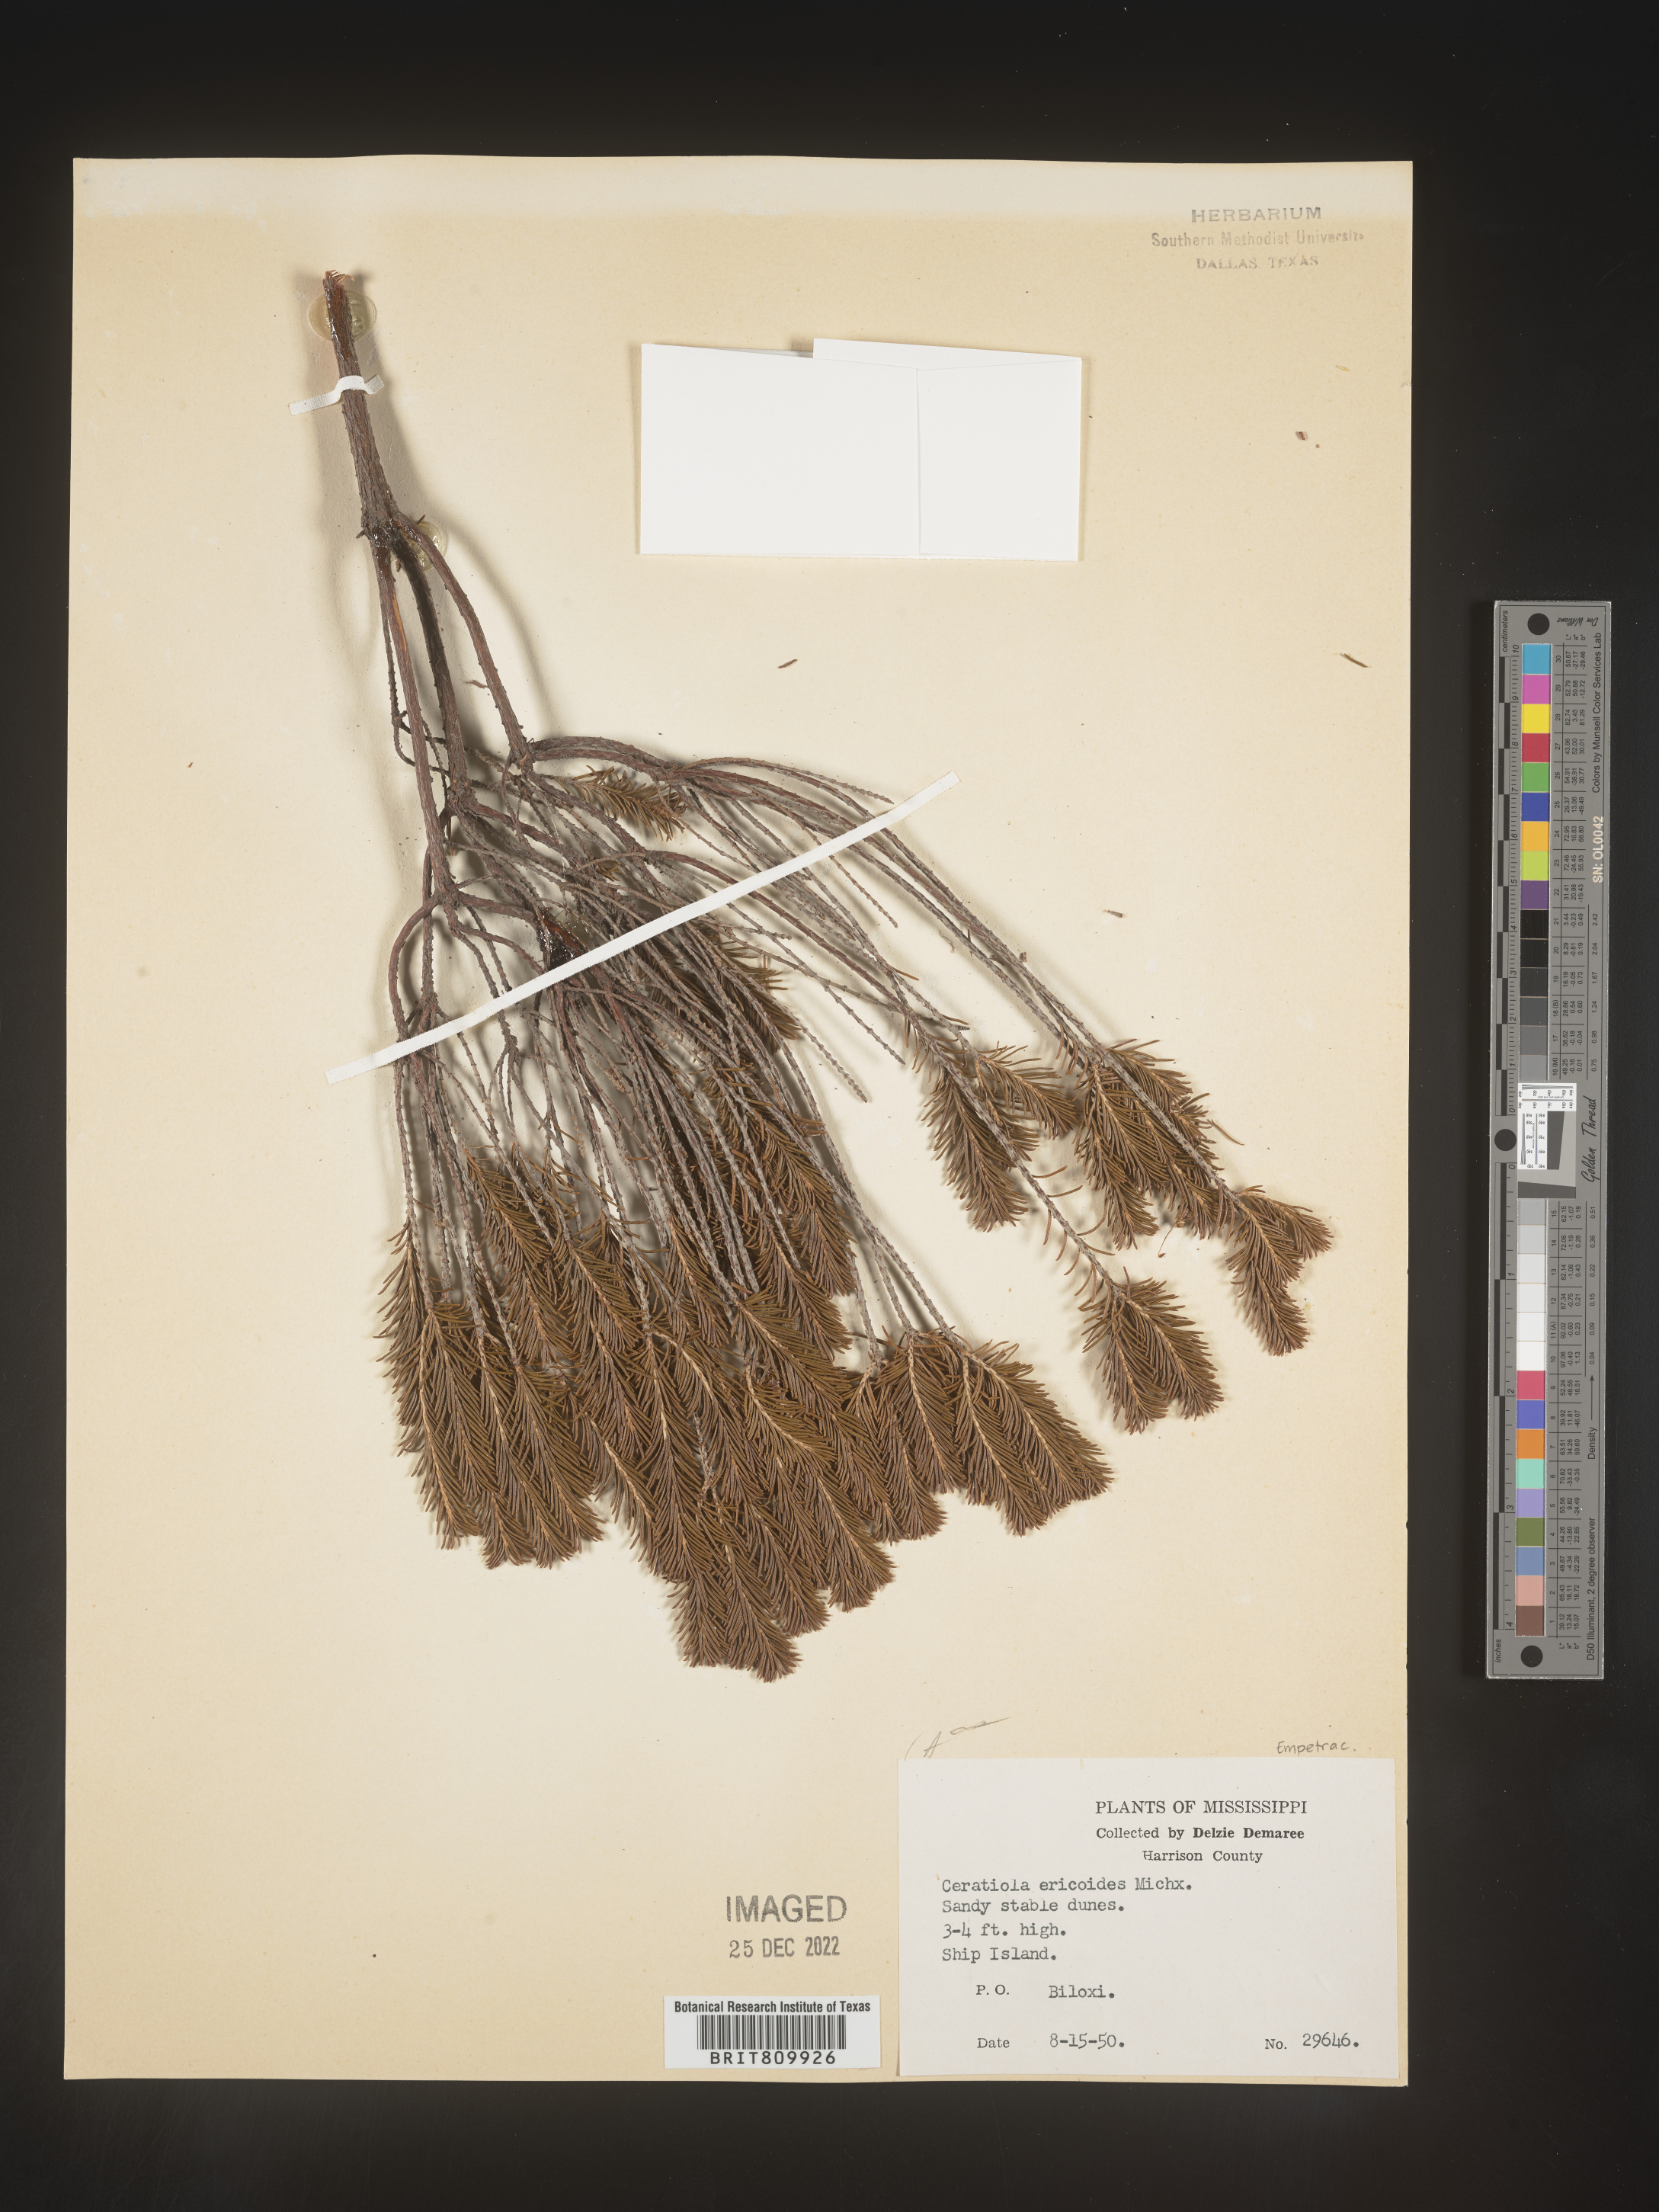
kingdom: Plantae
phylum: Tracheophyta
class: Magnoliopsida
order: Ericales
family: Ericaceae
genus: Ceratiola
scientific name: Ceratiola ericoides
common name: Sandhill-rosemary
